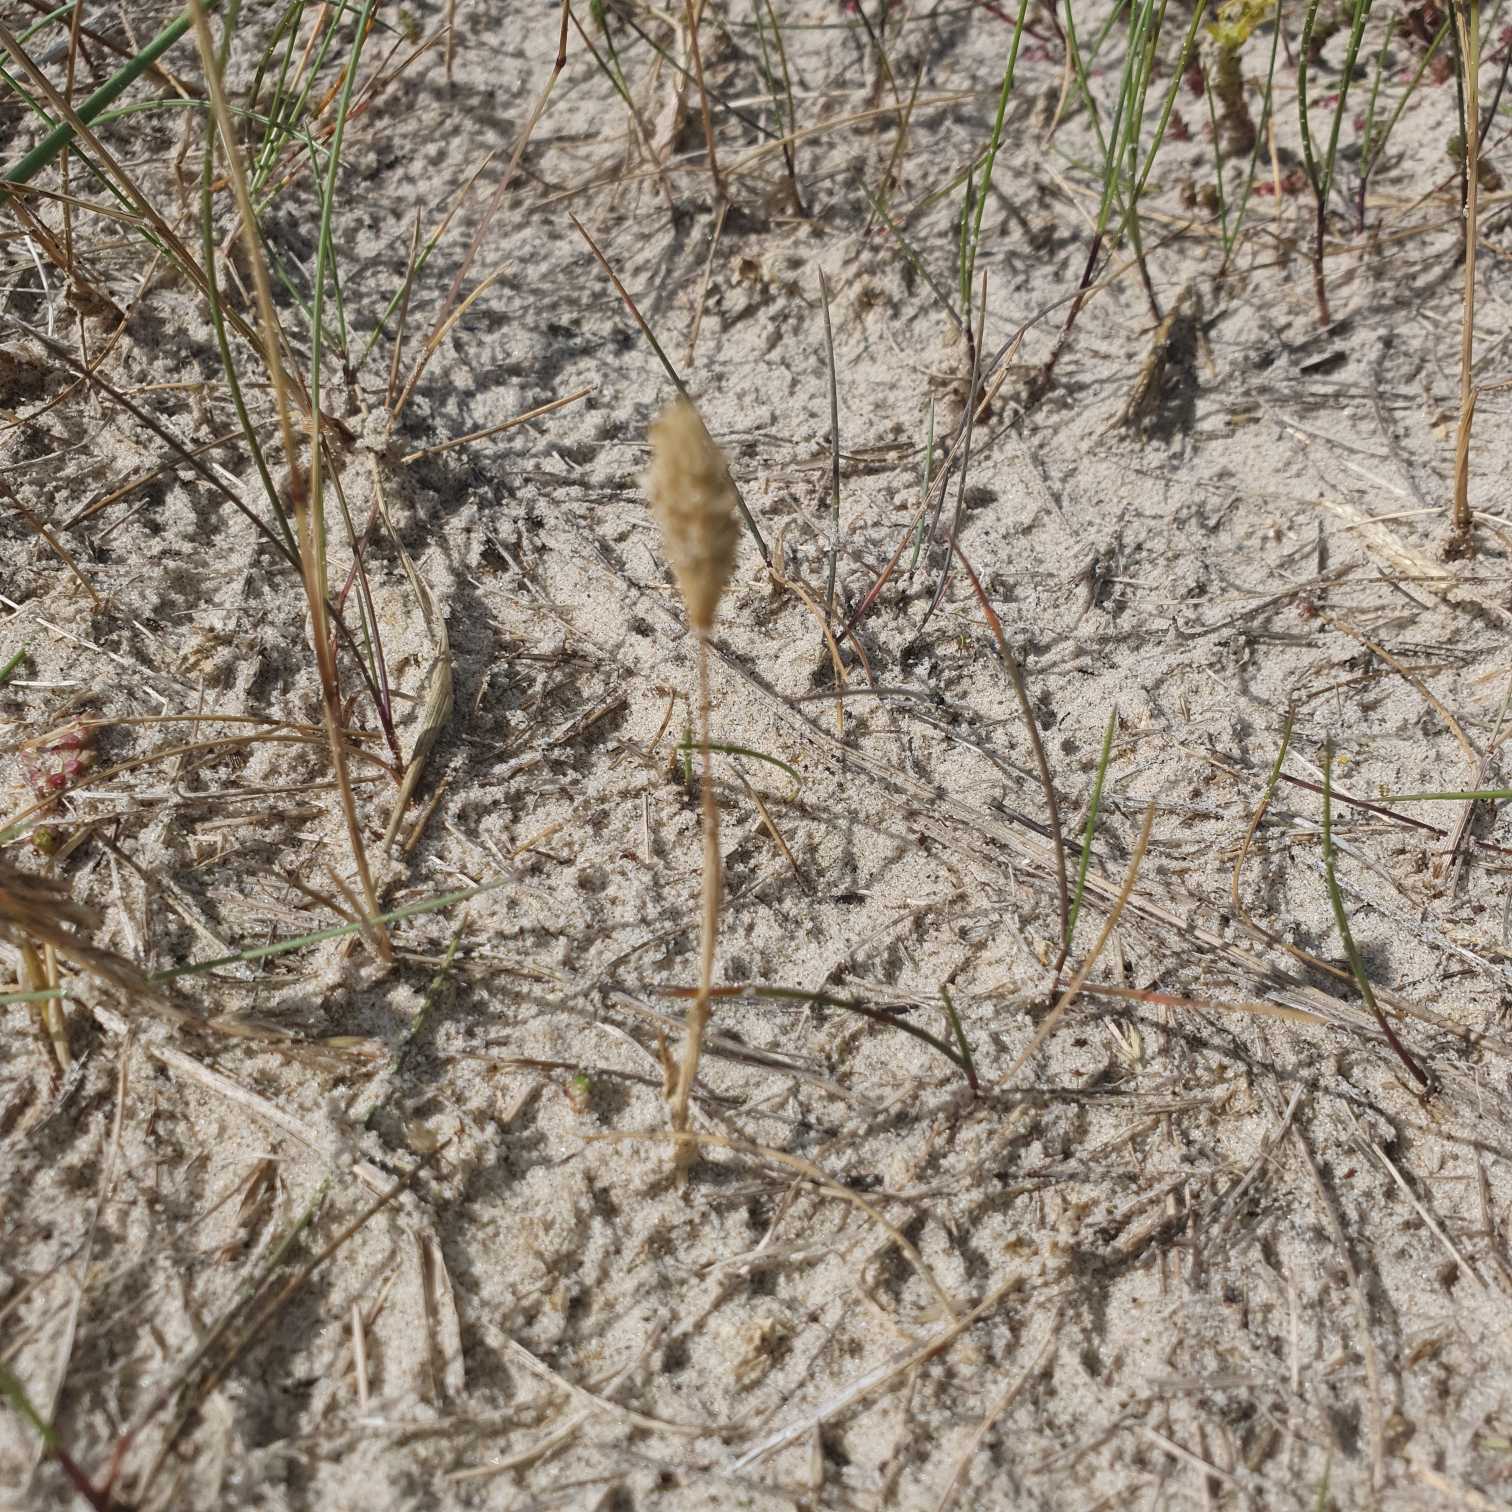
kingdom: Plantae
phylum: Tracheophyta
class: Liliopsida
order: Poales
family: Poaceae
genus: Phleum
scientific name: Phleum arenarium
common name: Sand-rottehale
